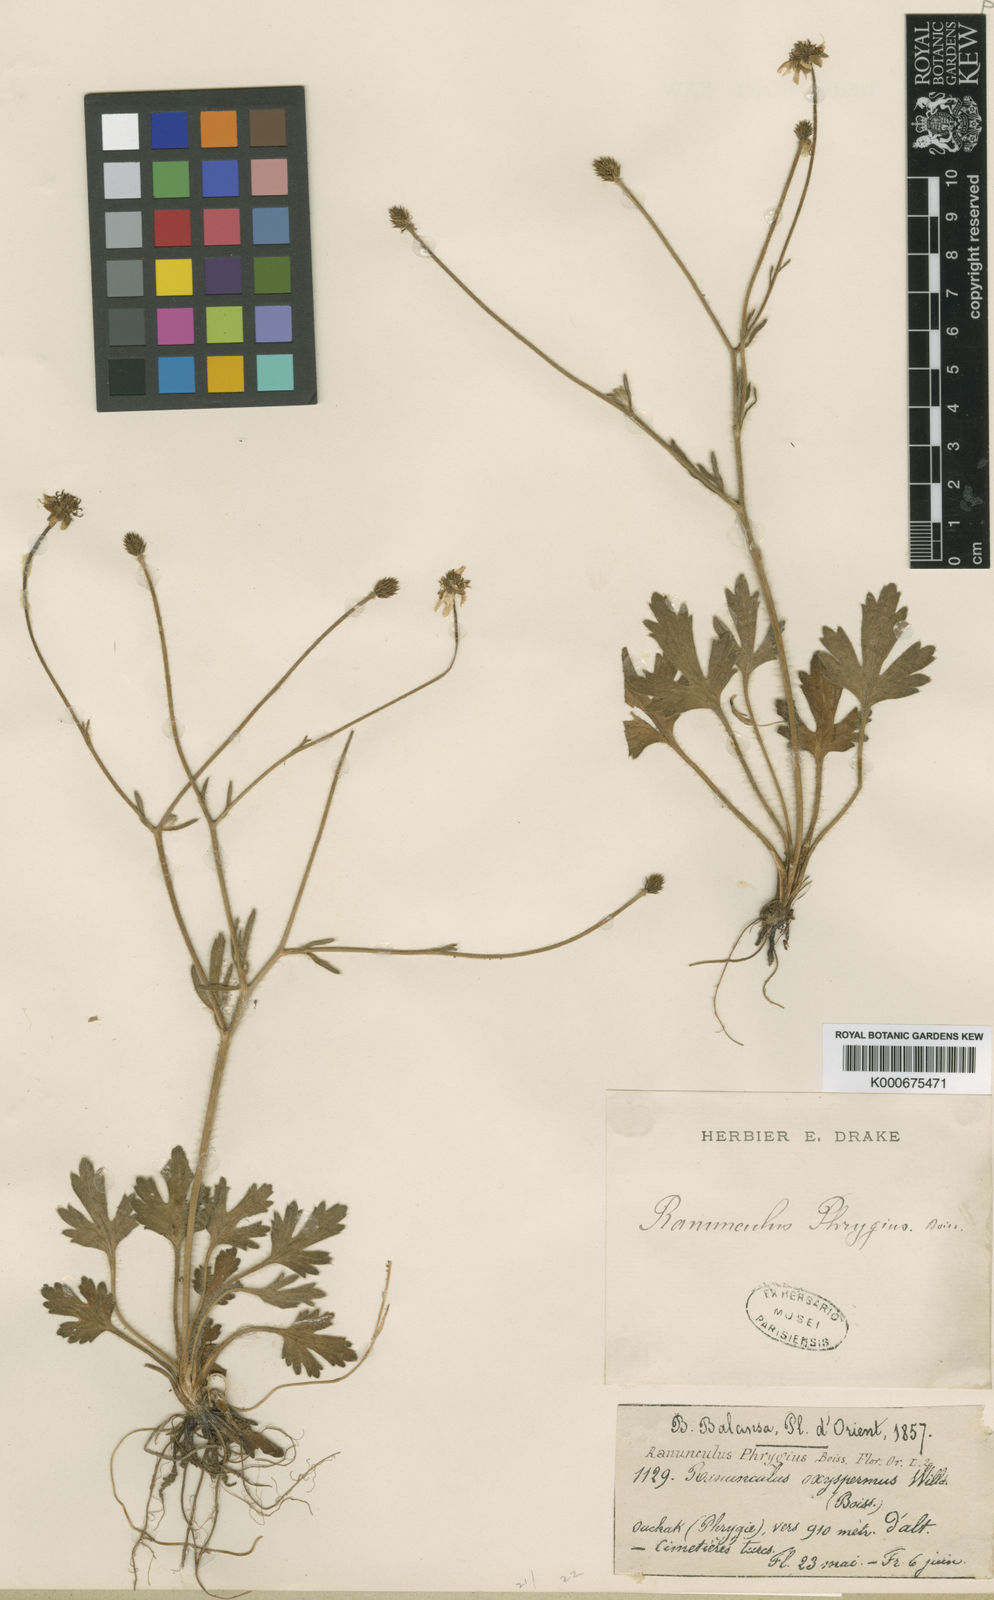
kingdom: Plantae
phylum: Tracheophyta
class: Magnoliopsida
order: Ranunculales
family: Ranunculaceae
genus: Ranunculus
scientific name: Ranunculus damascenus
